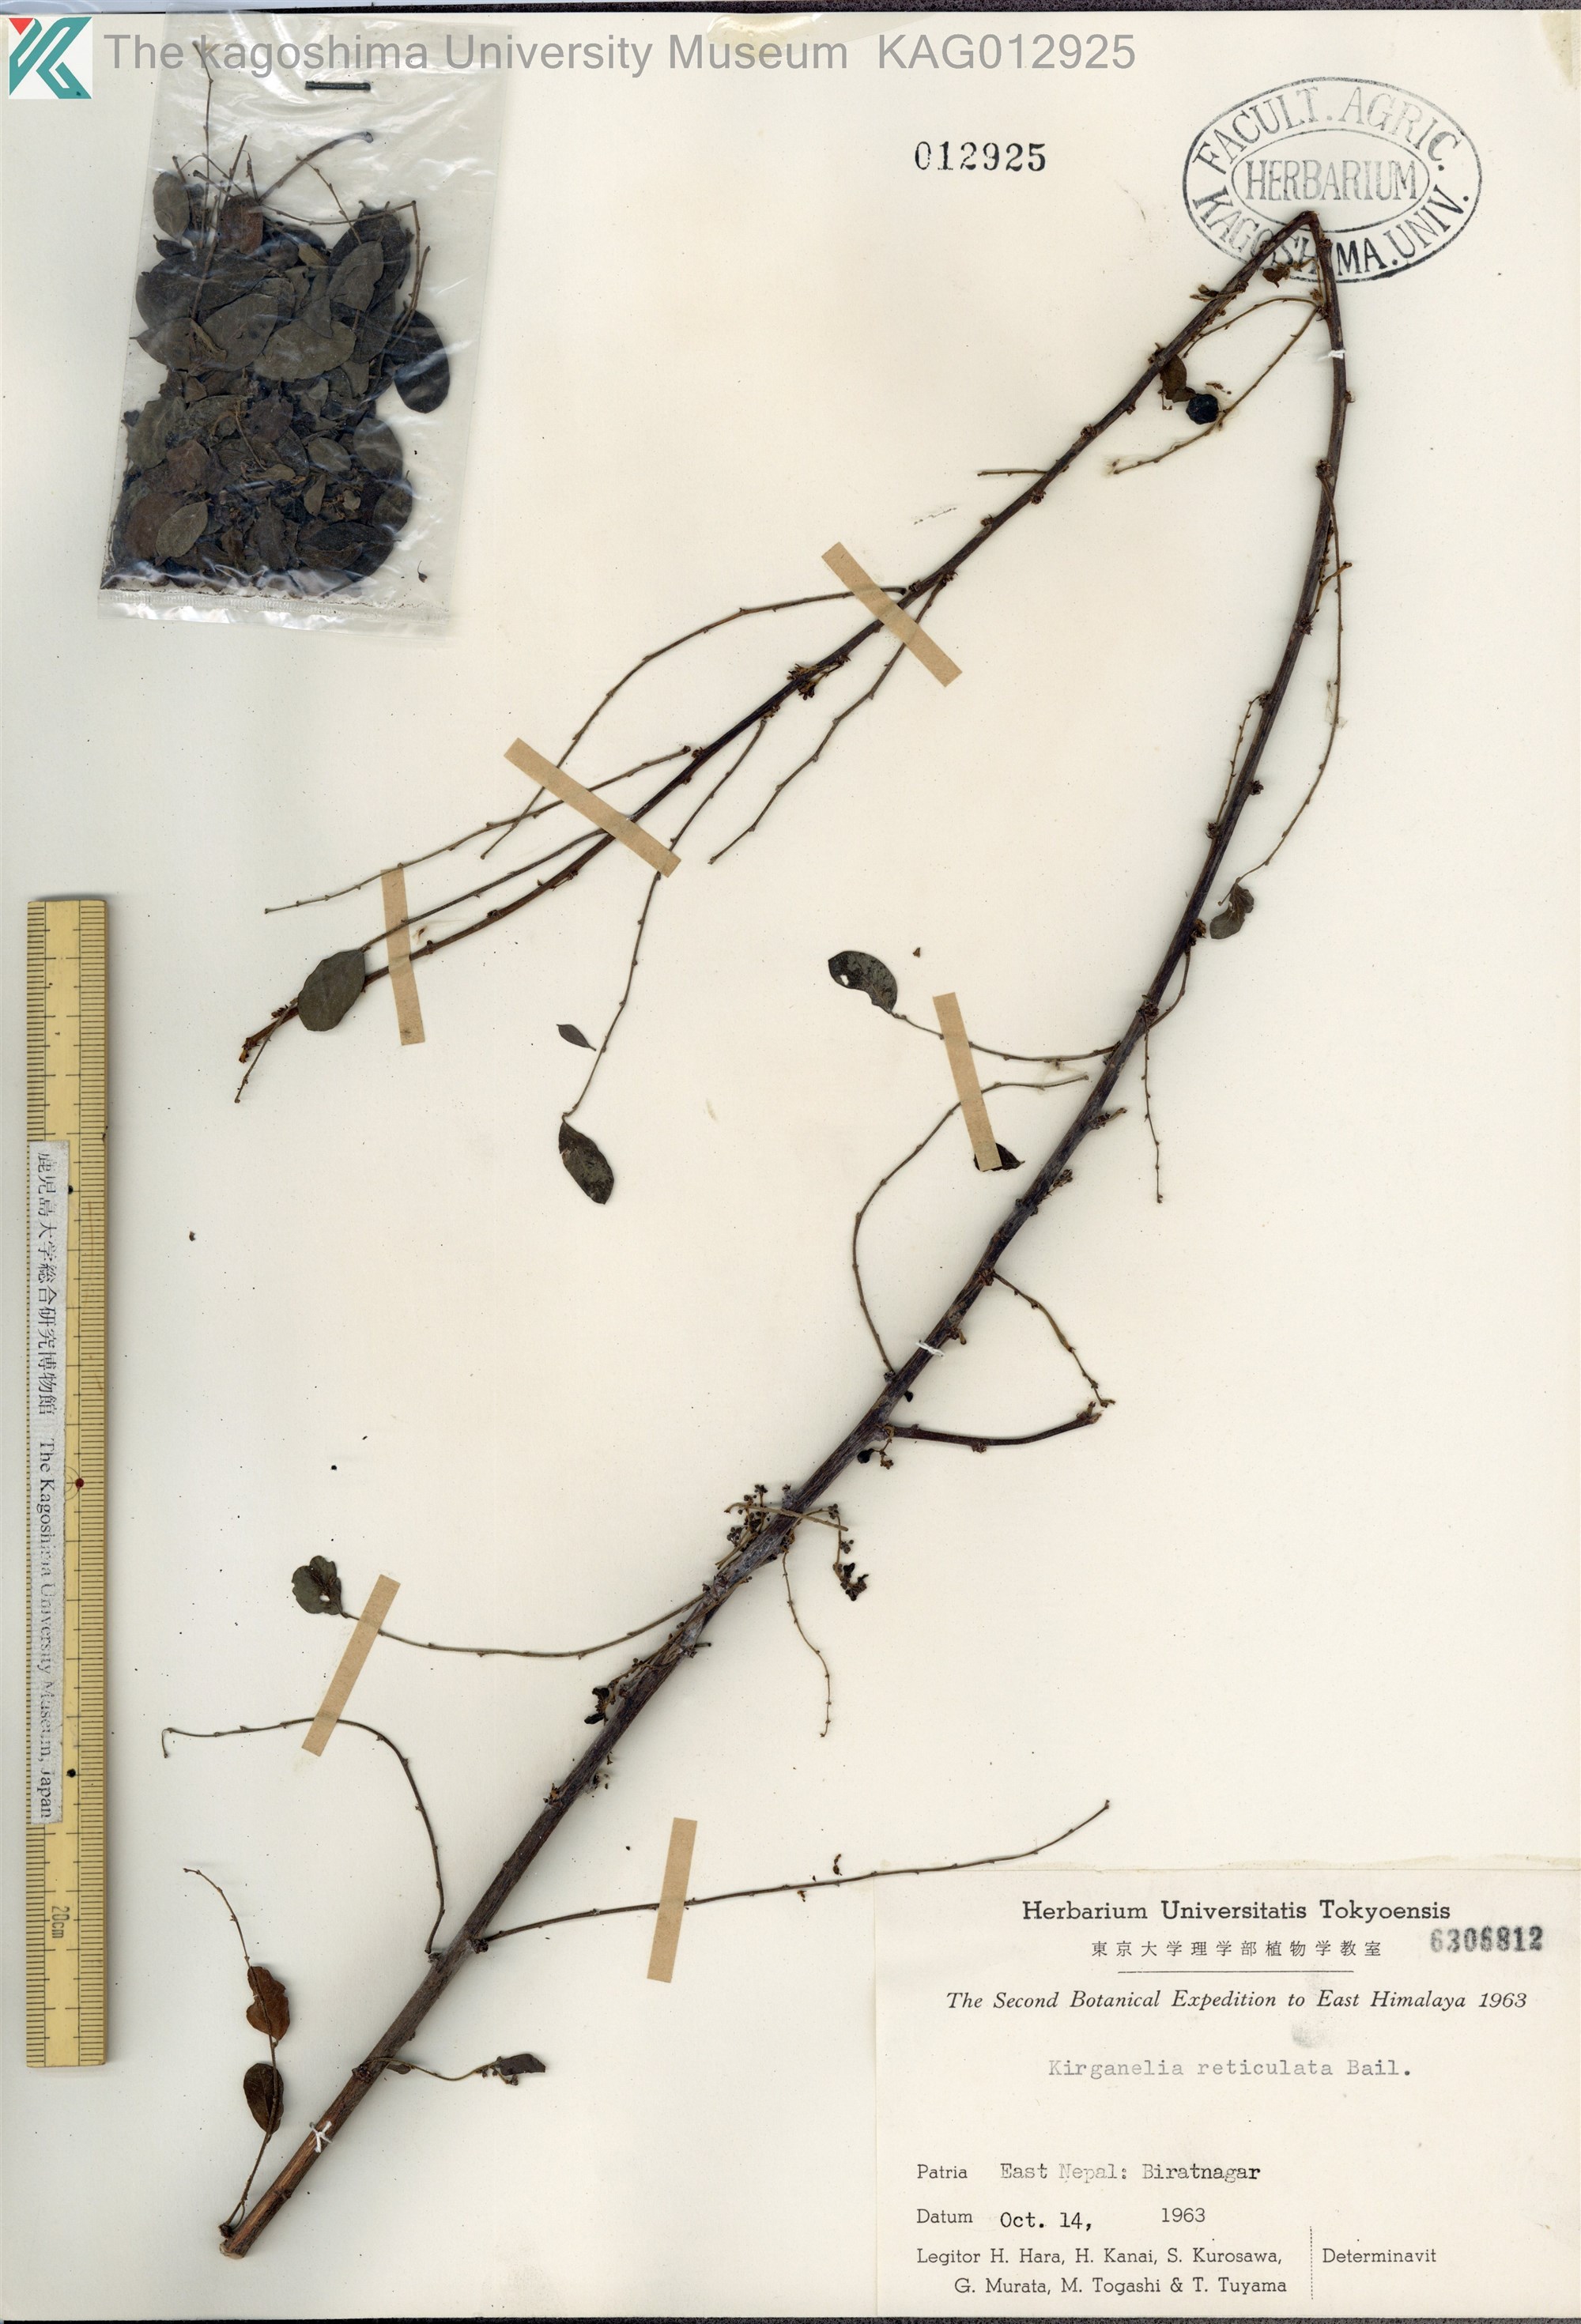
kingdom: Plantae
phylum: Tracheophyta
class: Magnoliopsida
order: Malpighiales
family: Phyllanthaceae
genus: Phyllanthus
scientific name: Phyllanthus reticulatus
